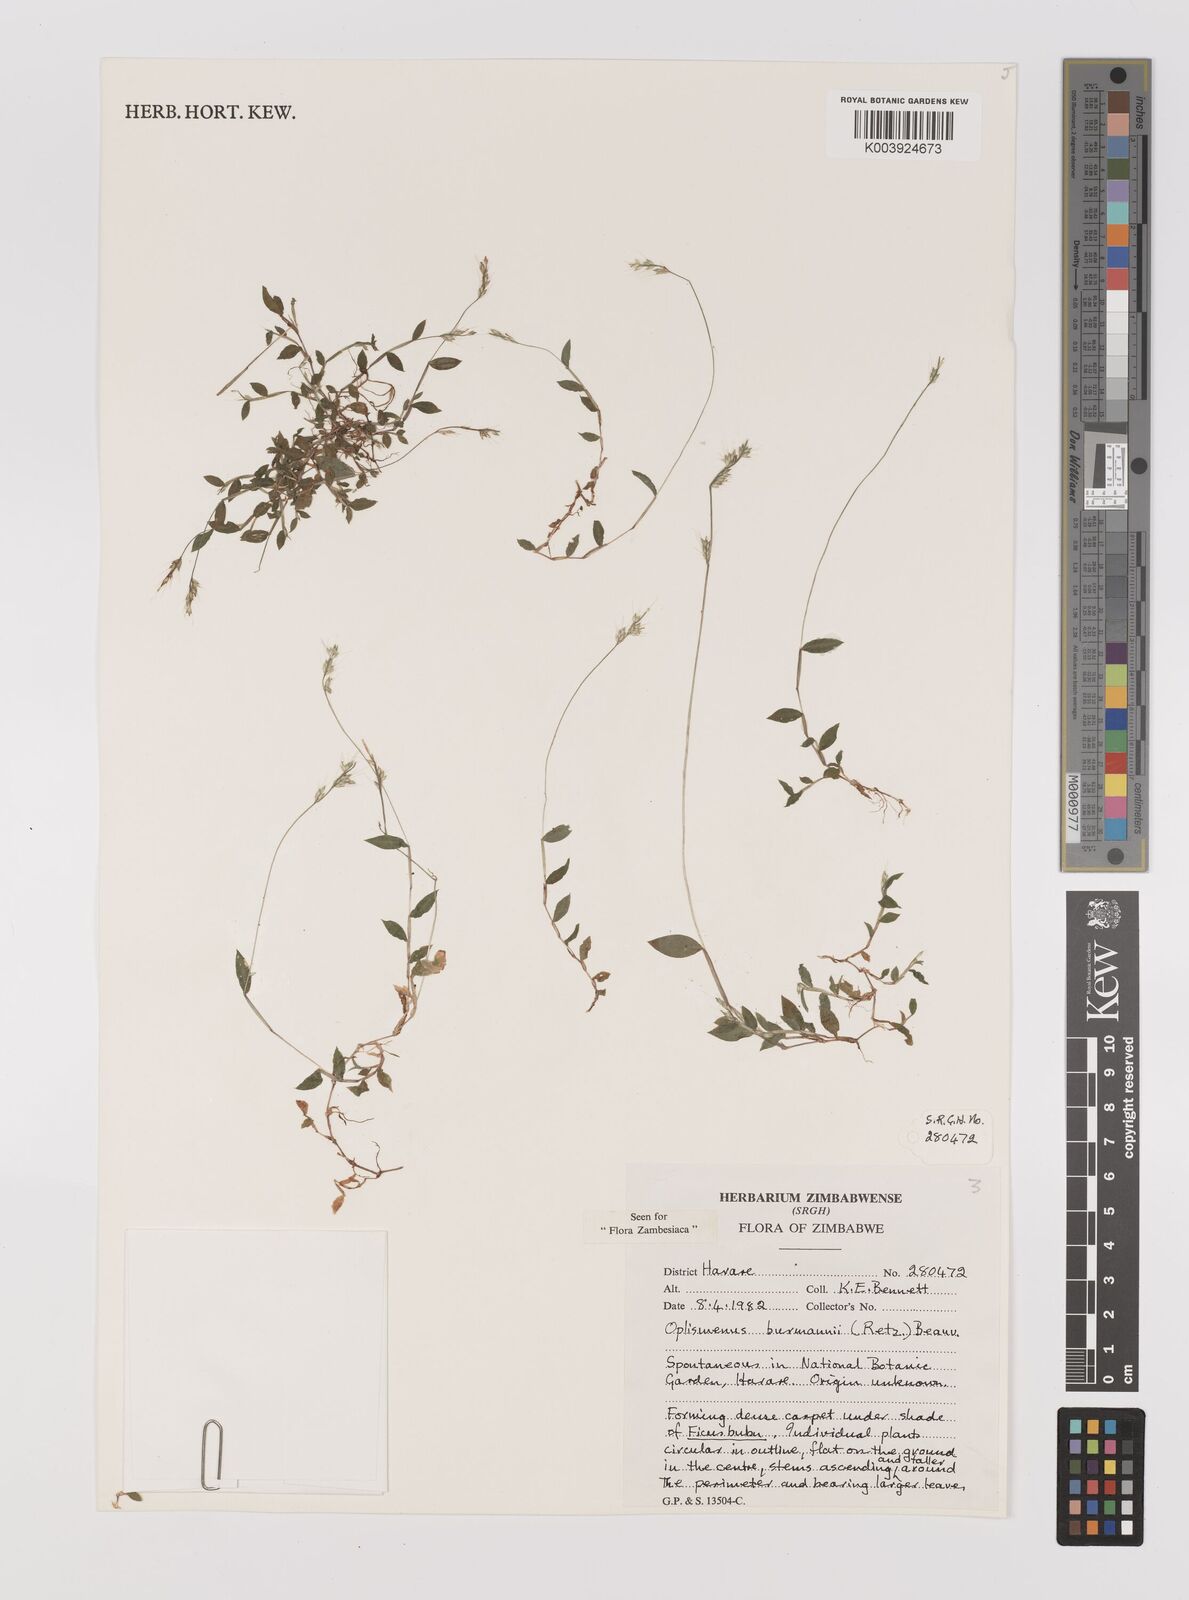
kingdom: Plantae
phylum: Tracheophyta
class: Liliopsida
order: Poales
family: Poaceae
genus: Oplismenus
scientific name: Oplismenus burmanni
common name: Burmann's basketgrass
